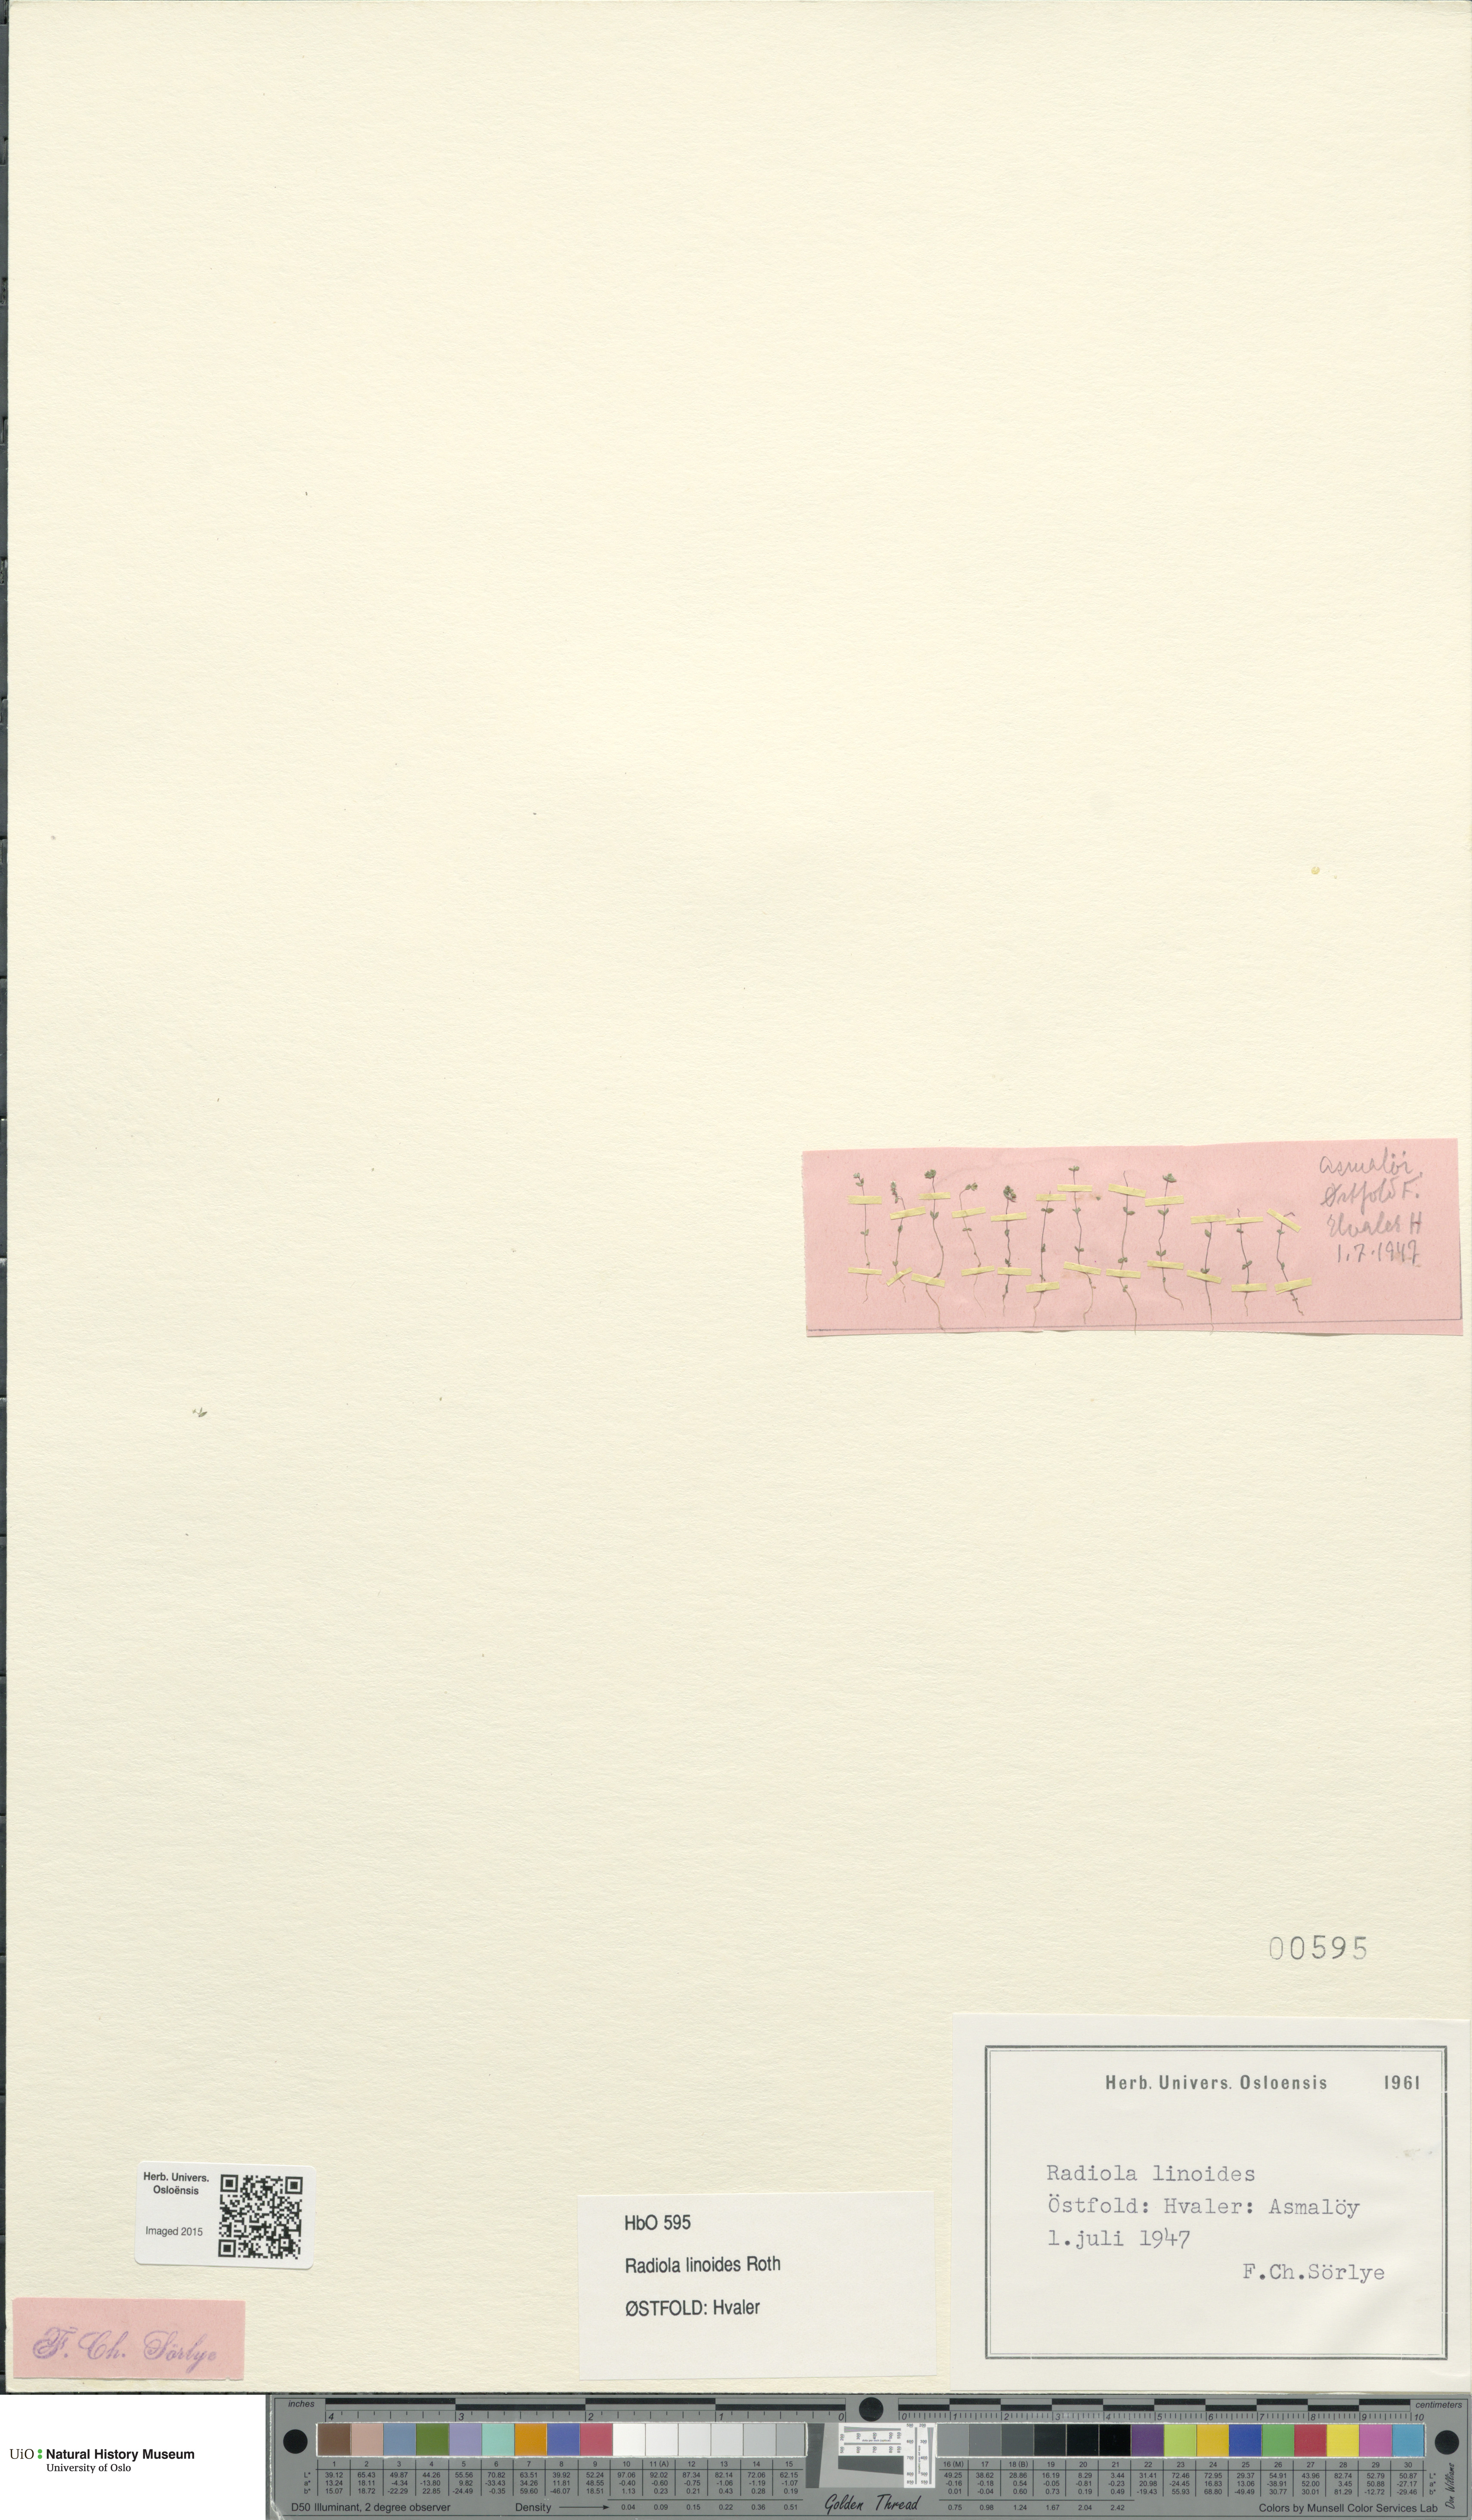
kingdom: Plantae
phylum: Tracheophyta
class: Magnoliopsida
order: Malpighiales
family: Linaceae
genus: Radiola
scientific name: Radiola linoides
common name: Allseed
